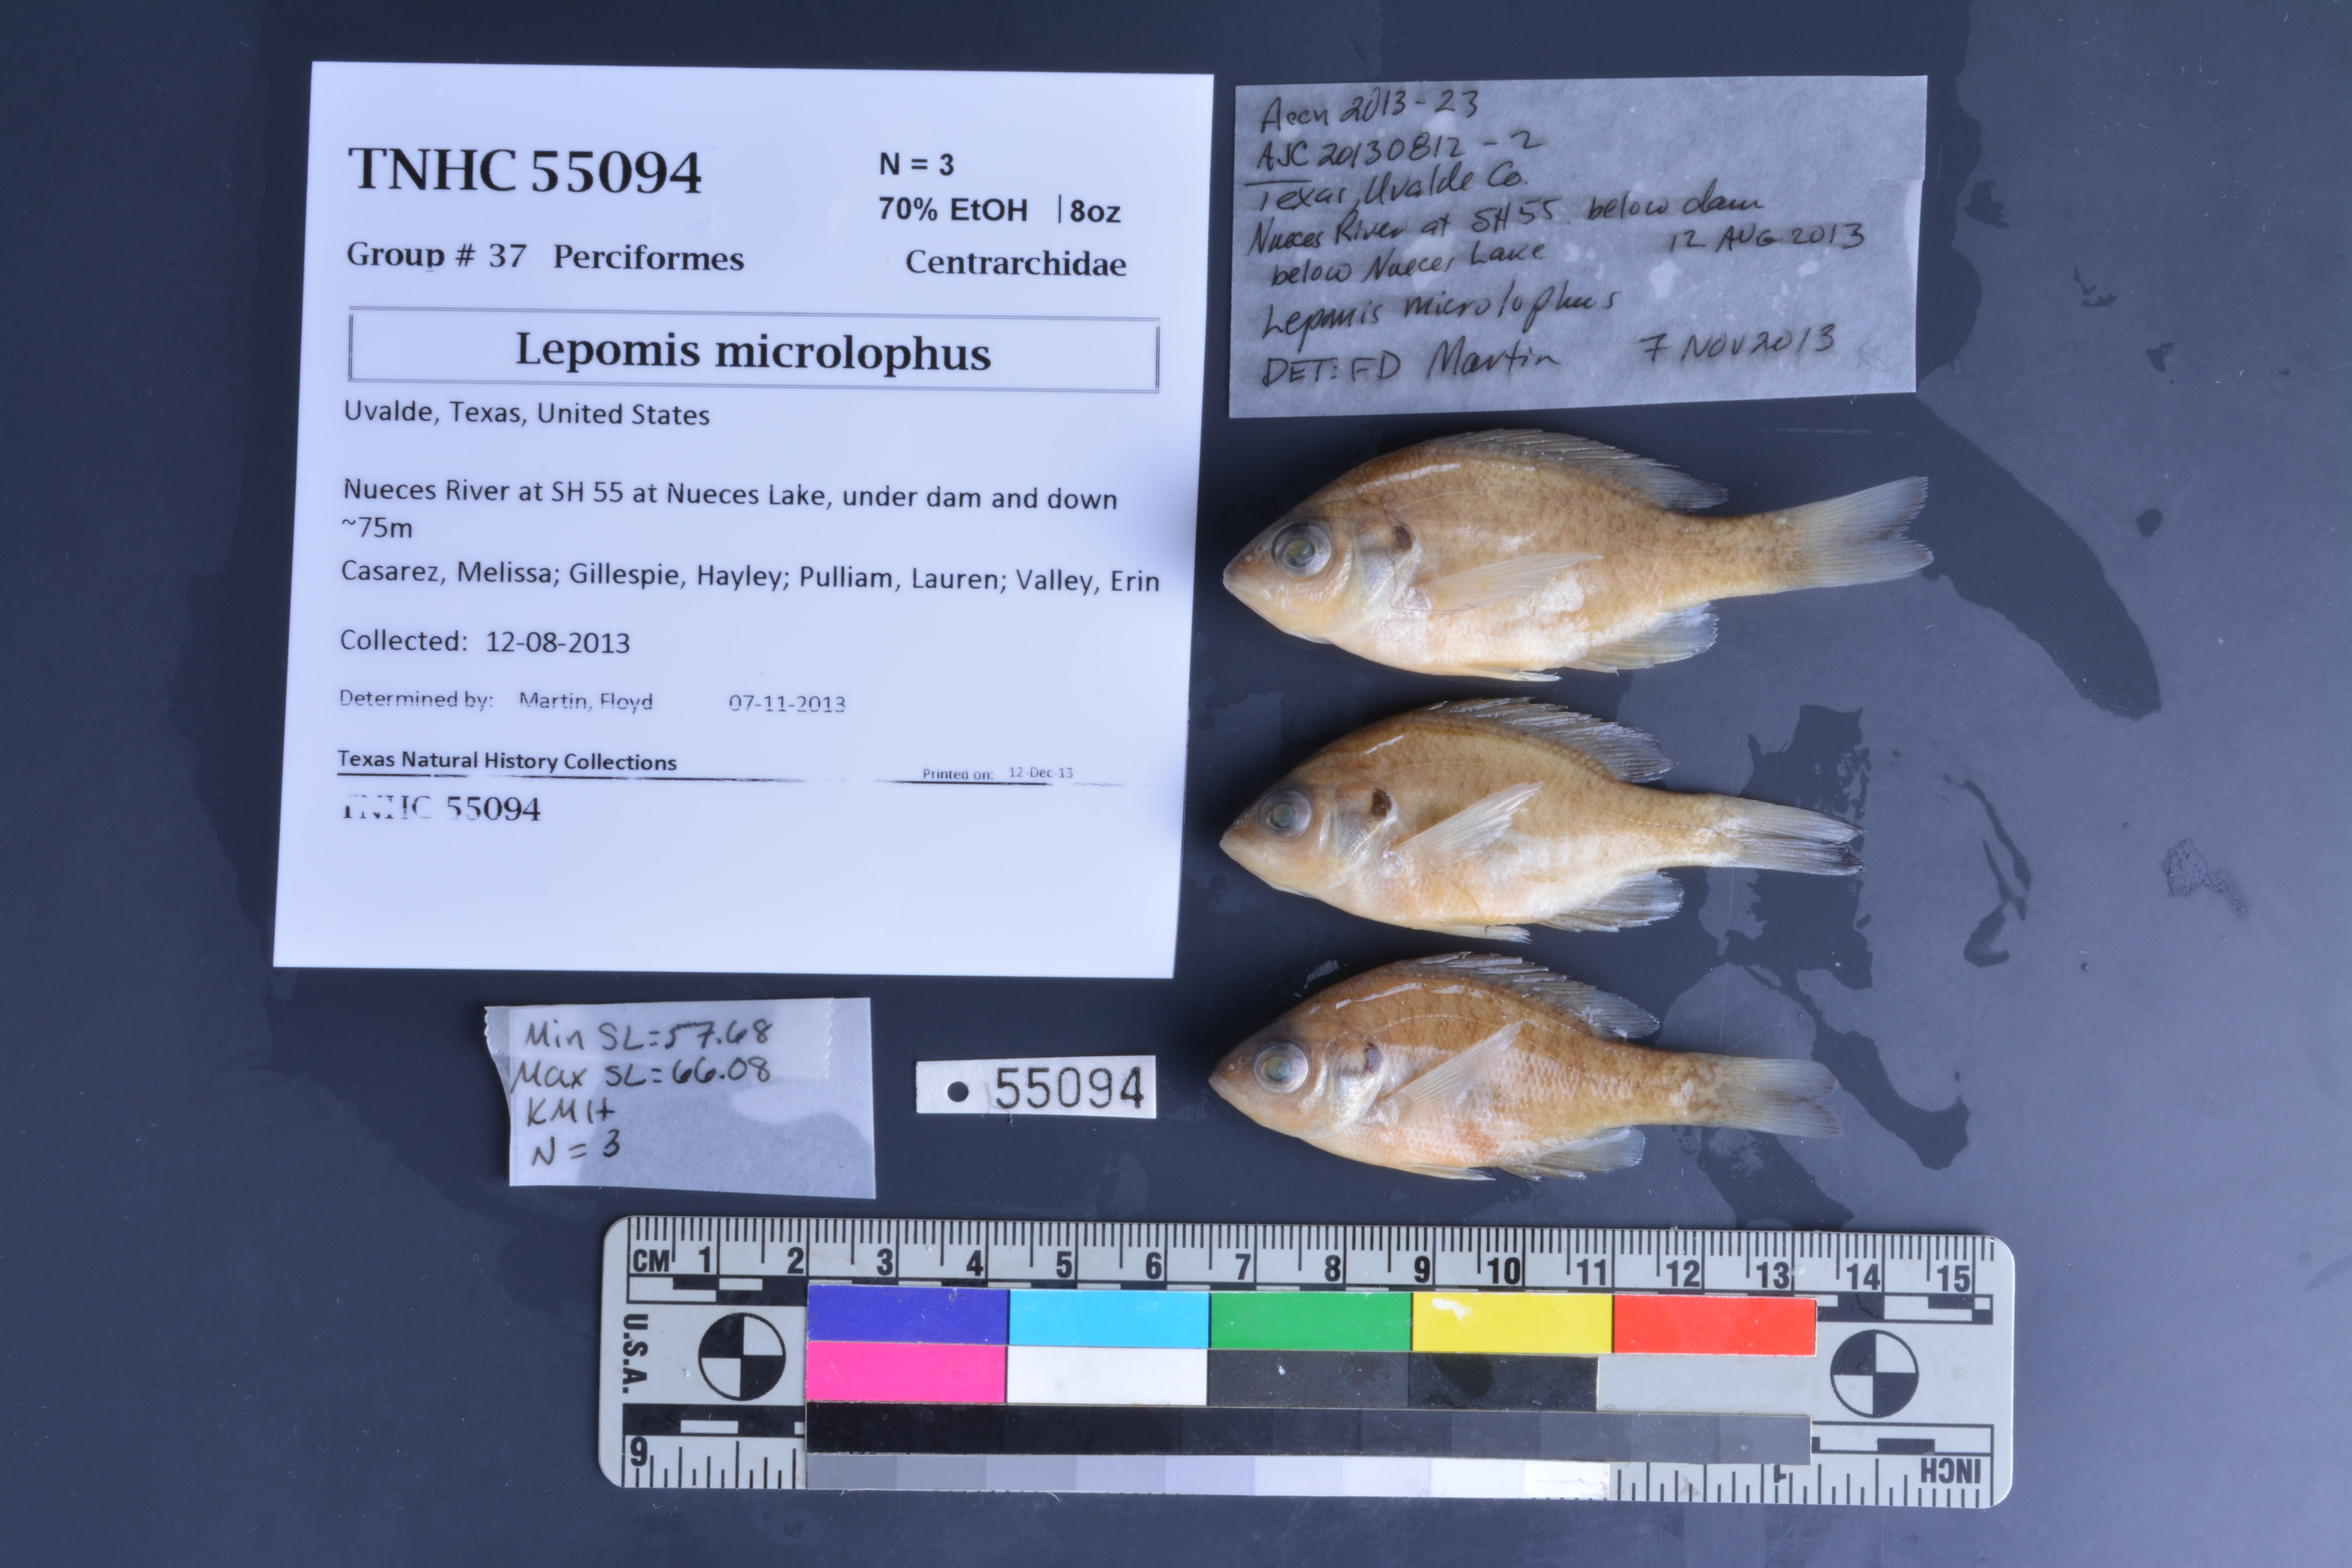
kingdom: Animalia
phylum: Chordata
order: Perciformes
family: Centrarchidae
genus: Lepomis
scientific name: Lepomis microlophus
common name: Redear sunfish
